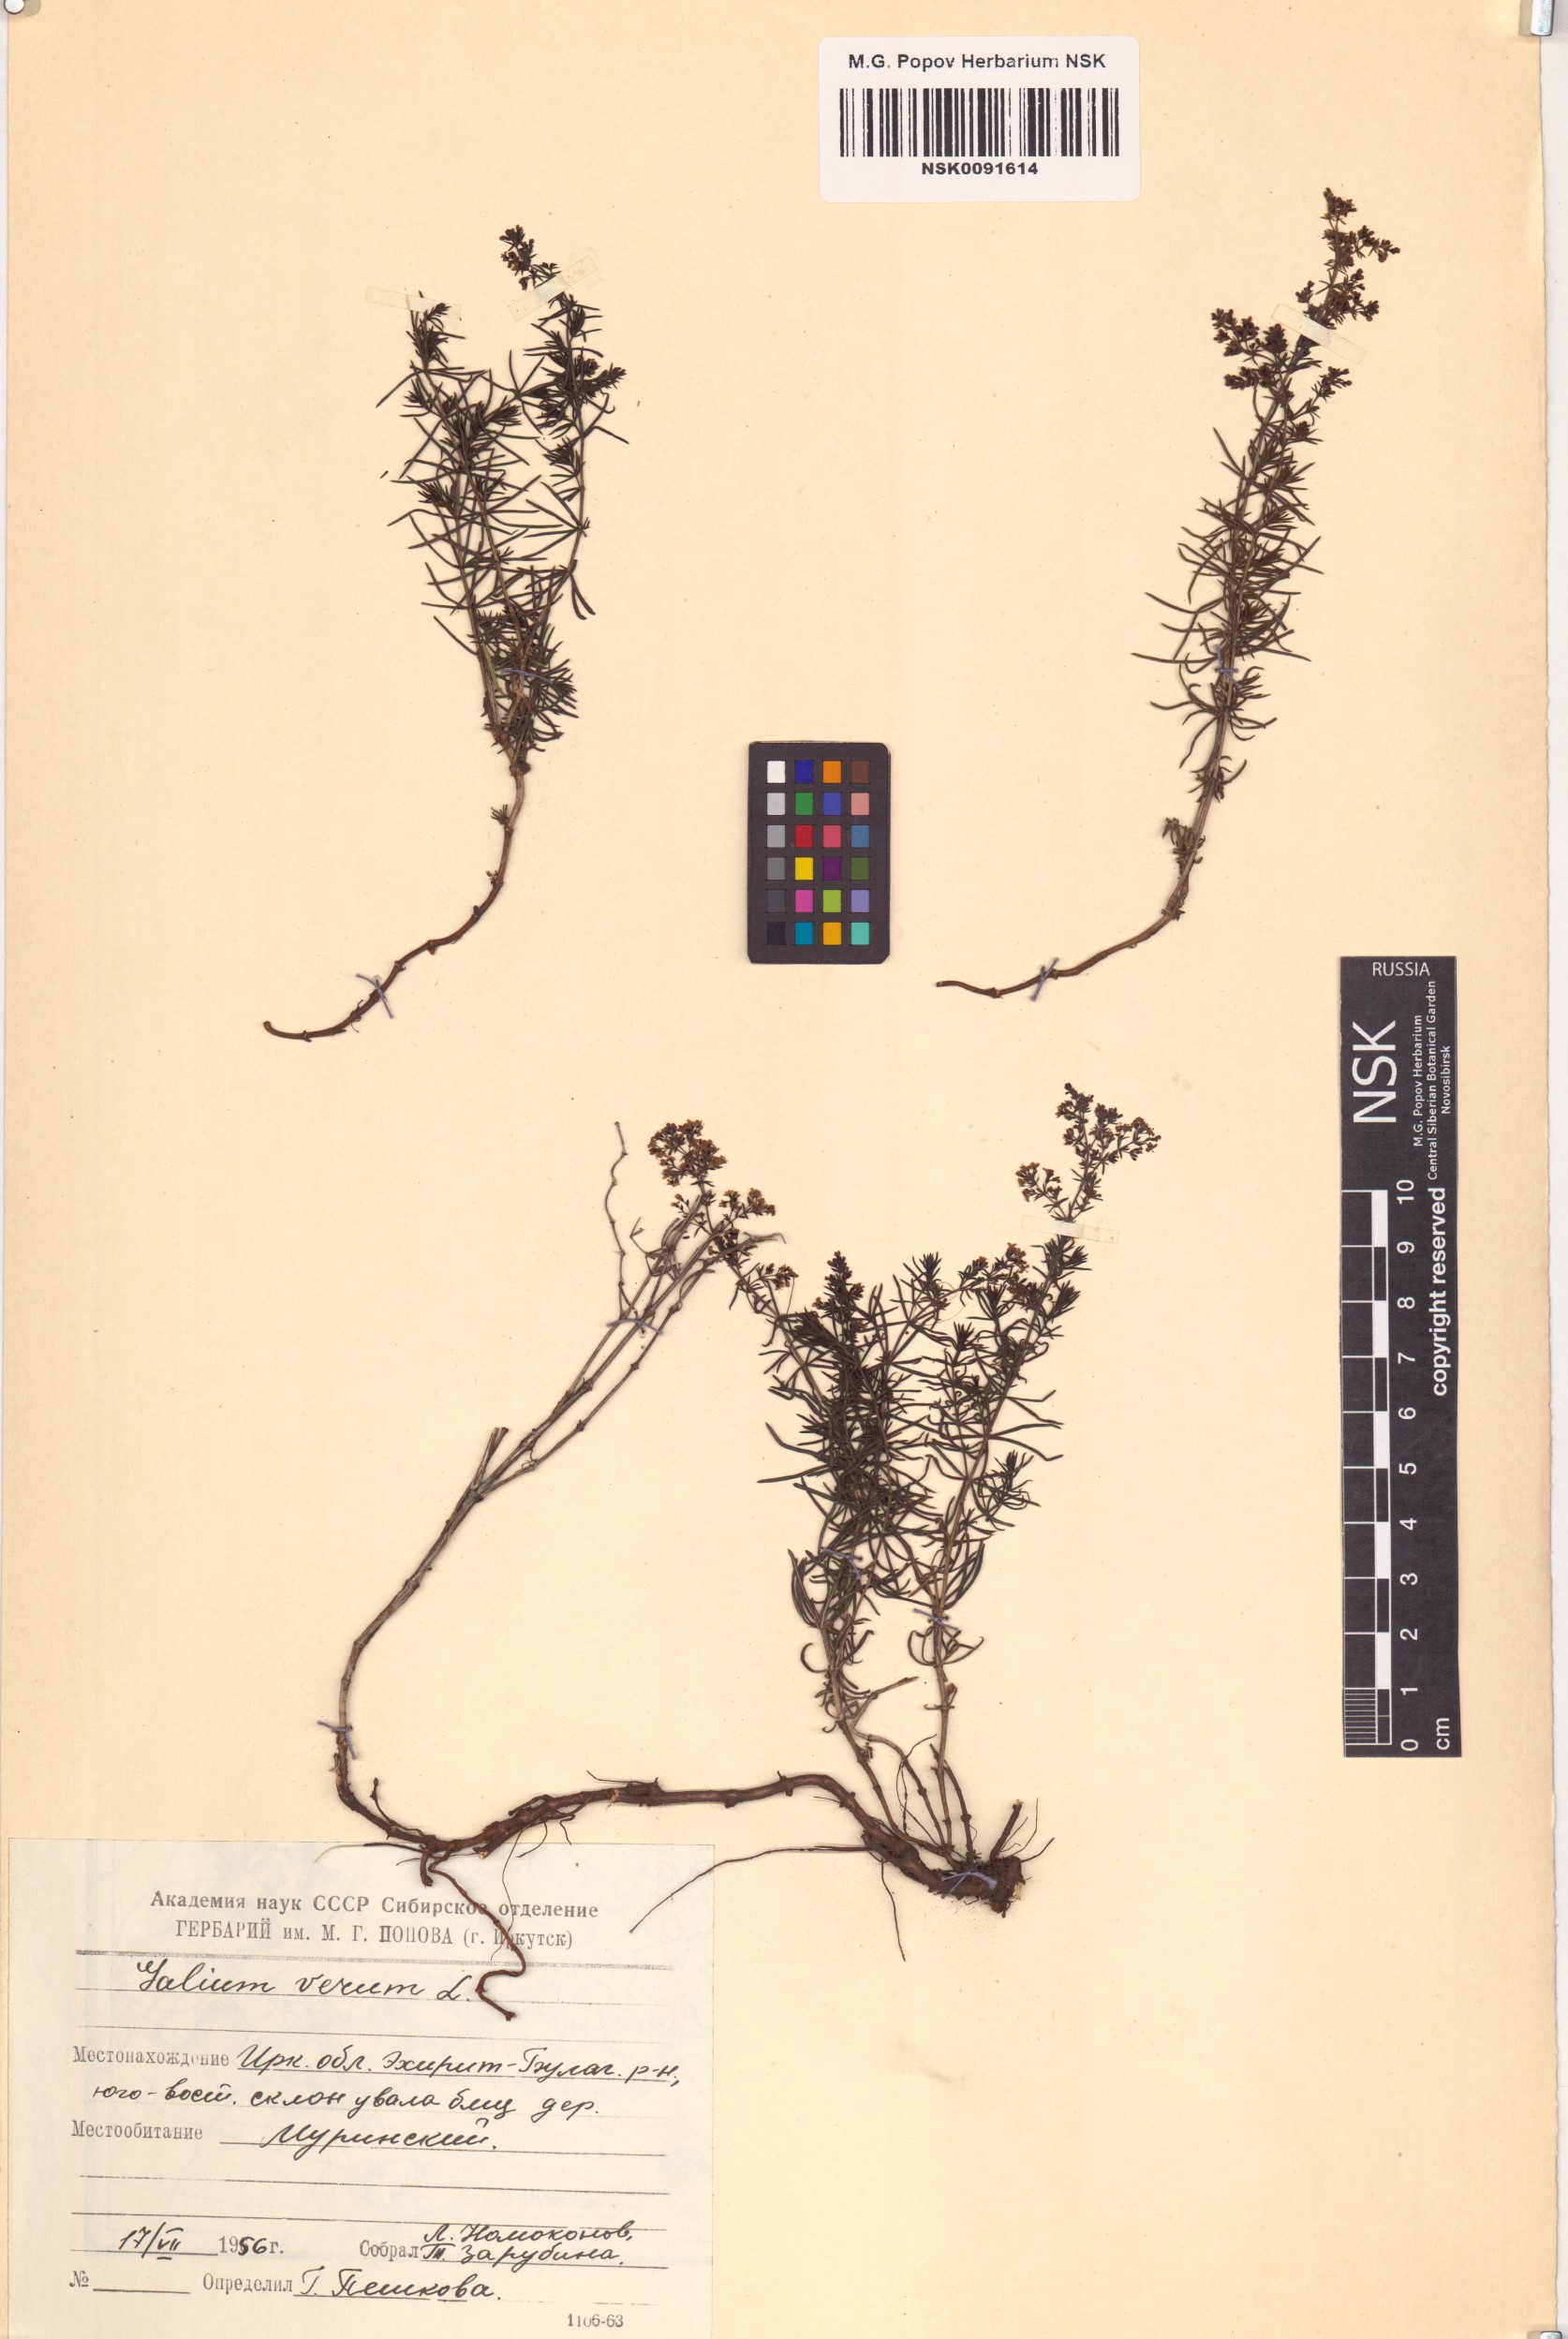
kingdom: Plantae
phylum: Tracheophyta
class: Magnoliopsida
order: Gentianales
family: Rubiaceae
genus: Galium
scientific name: Galium verum
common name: Lady's bedstraw
